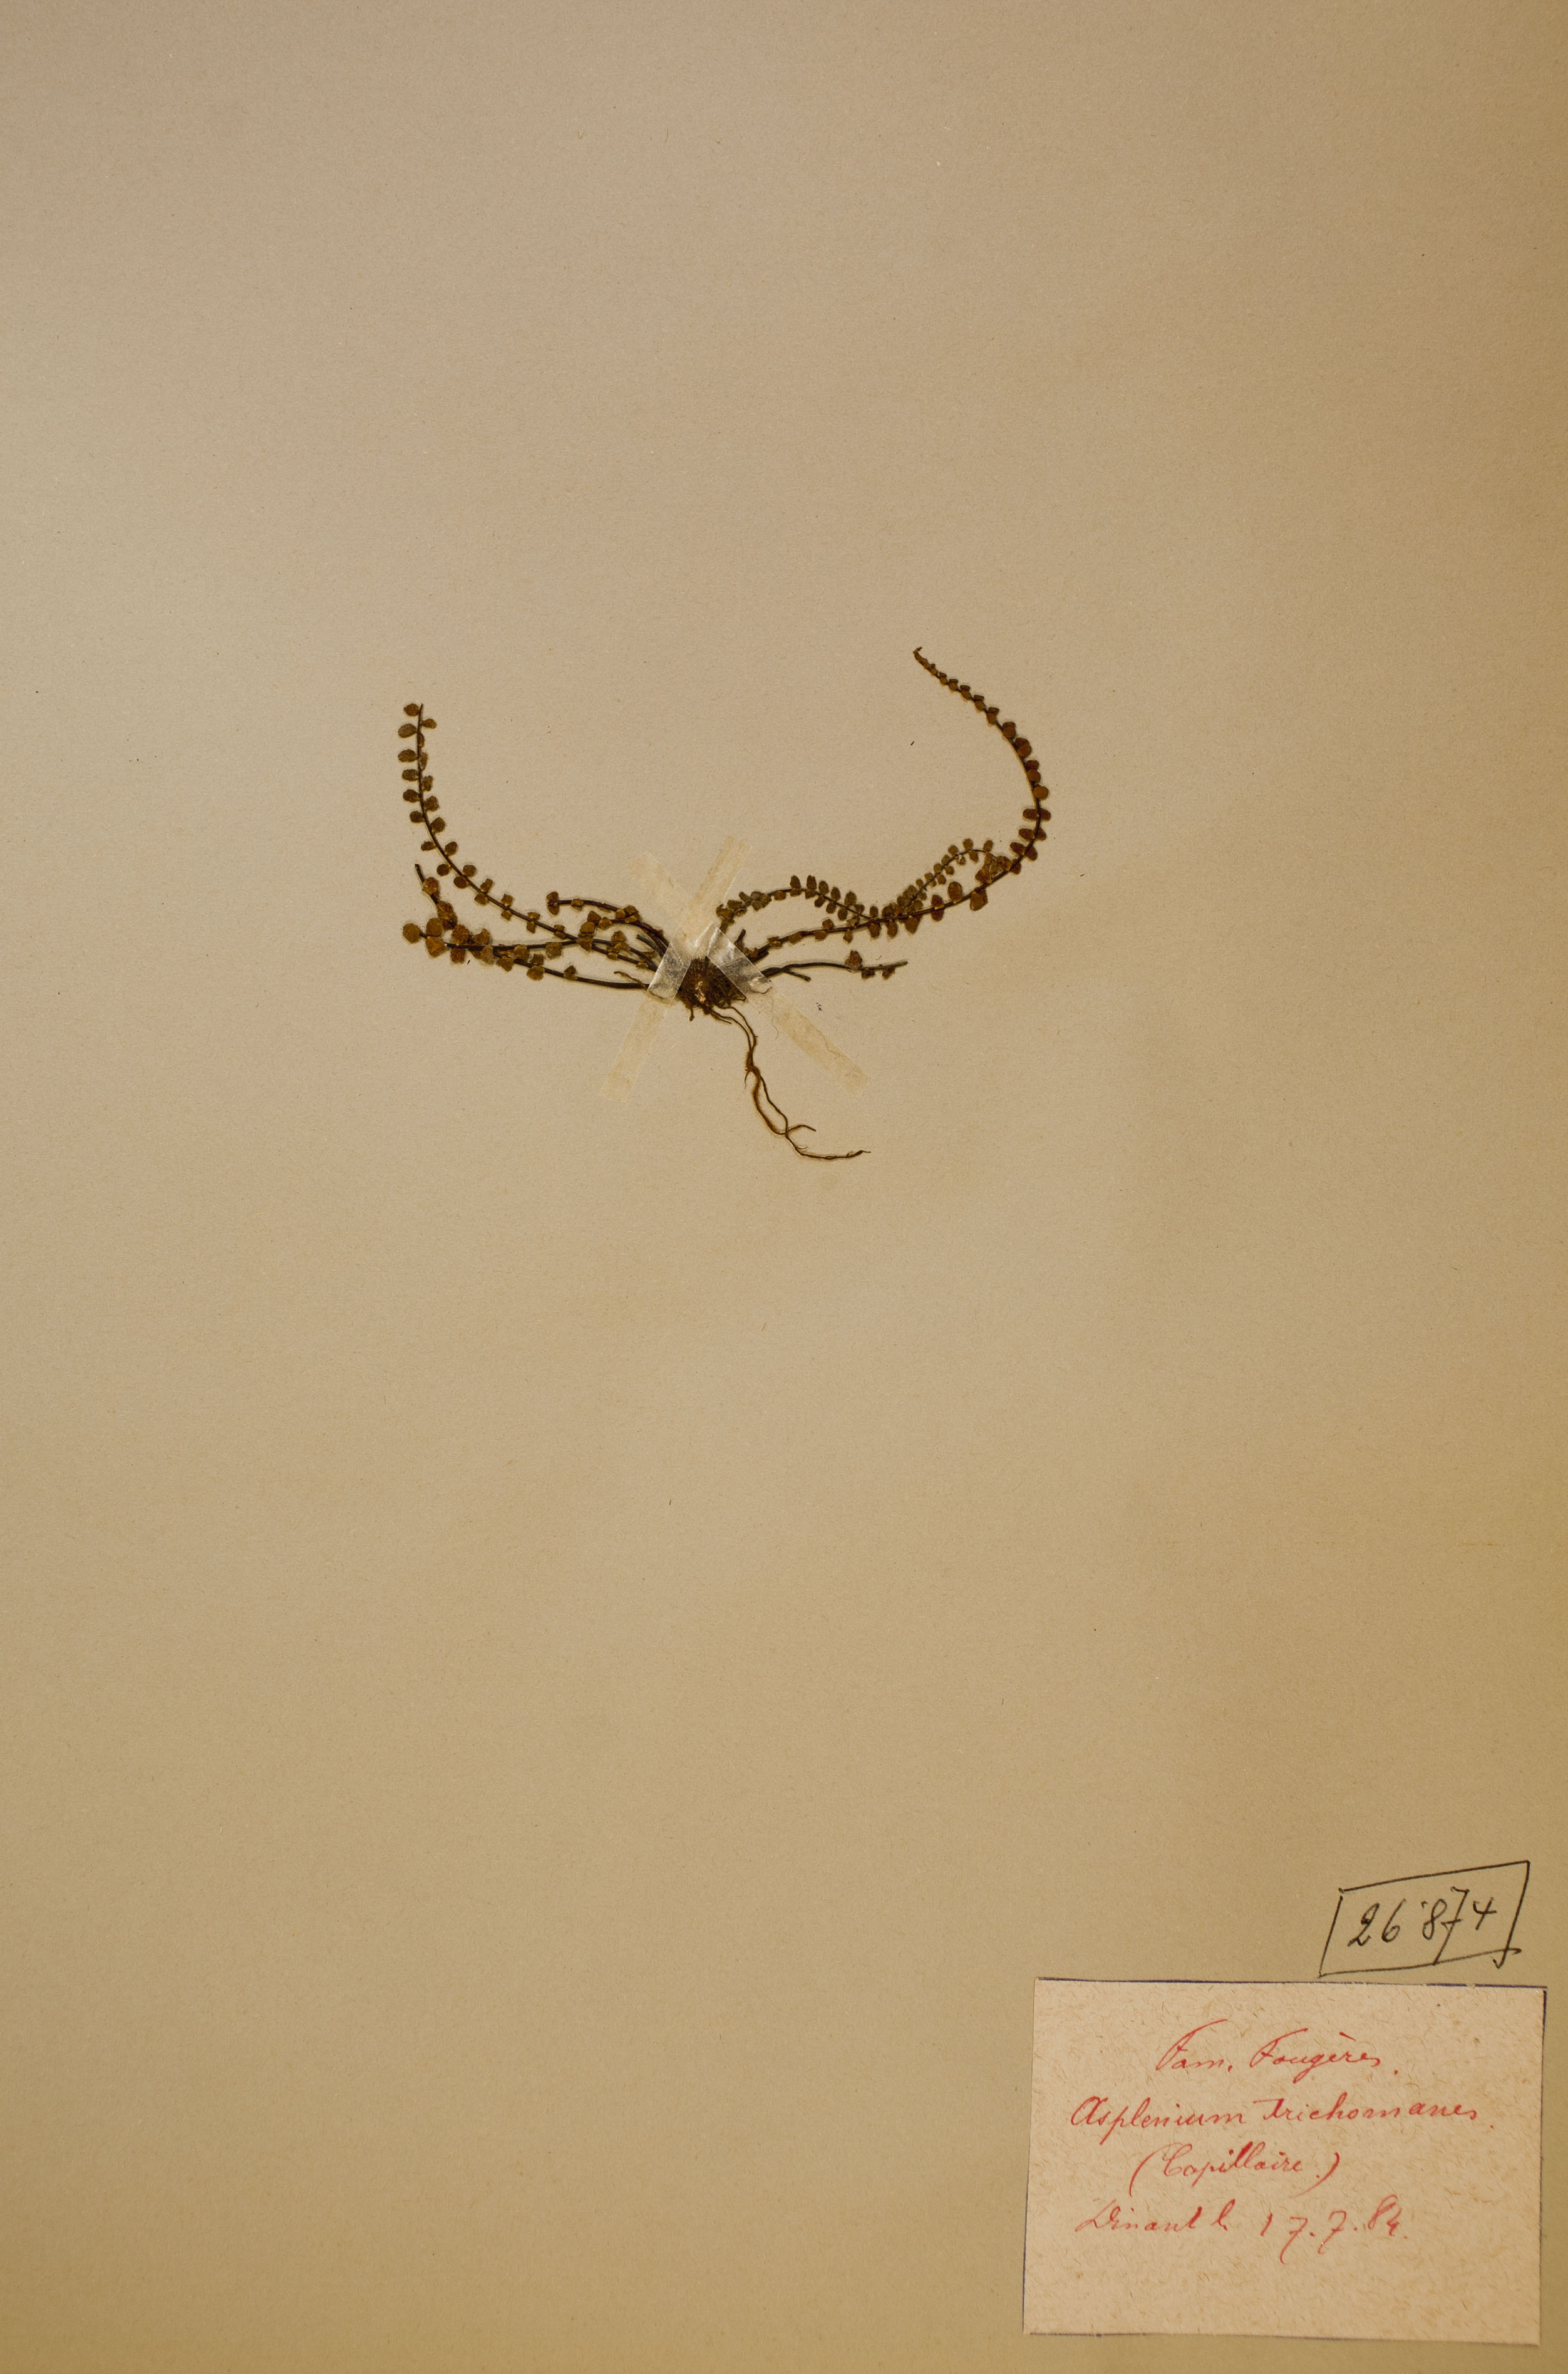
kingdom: Plantae
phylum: Tracheophyta
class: Polypodiopsida
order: Polypodiales
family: Aspleniaceae
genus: Asplenium
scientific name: Asplenium trichomanes
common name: Maidenhair spleenwort
